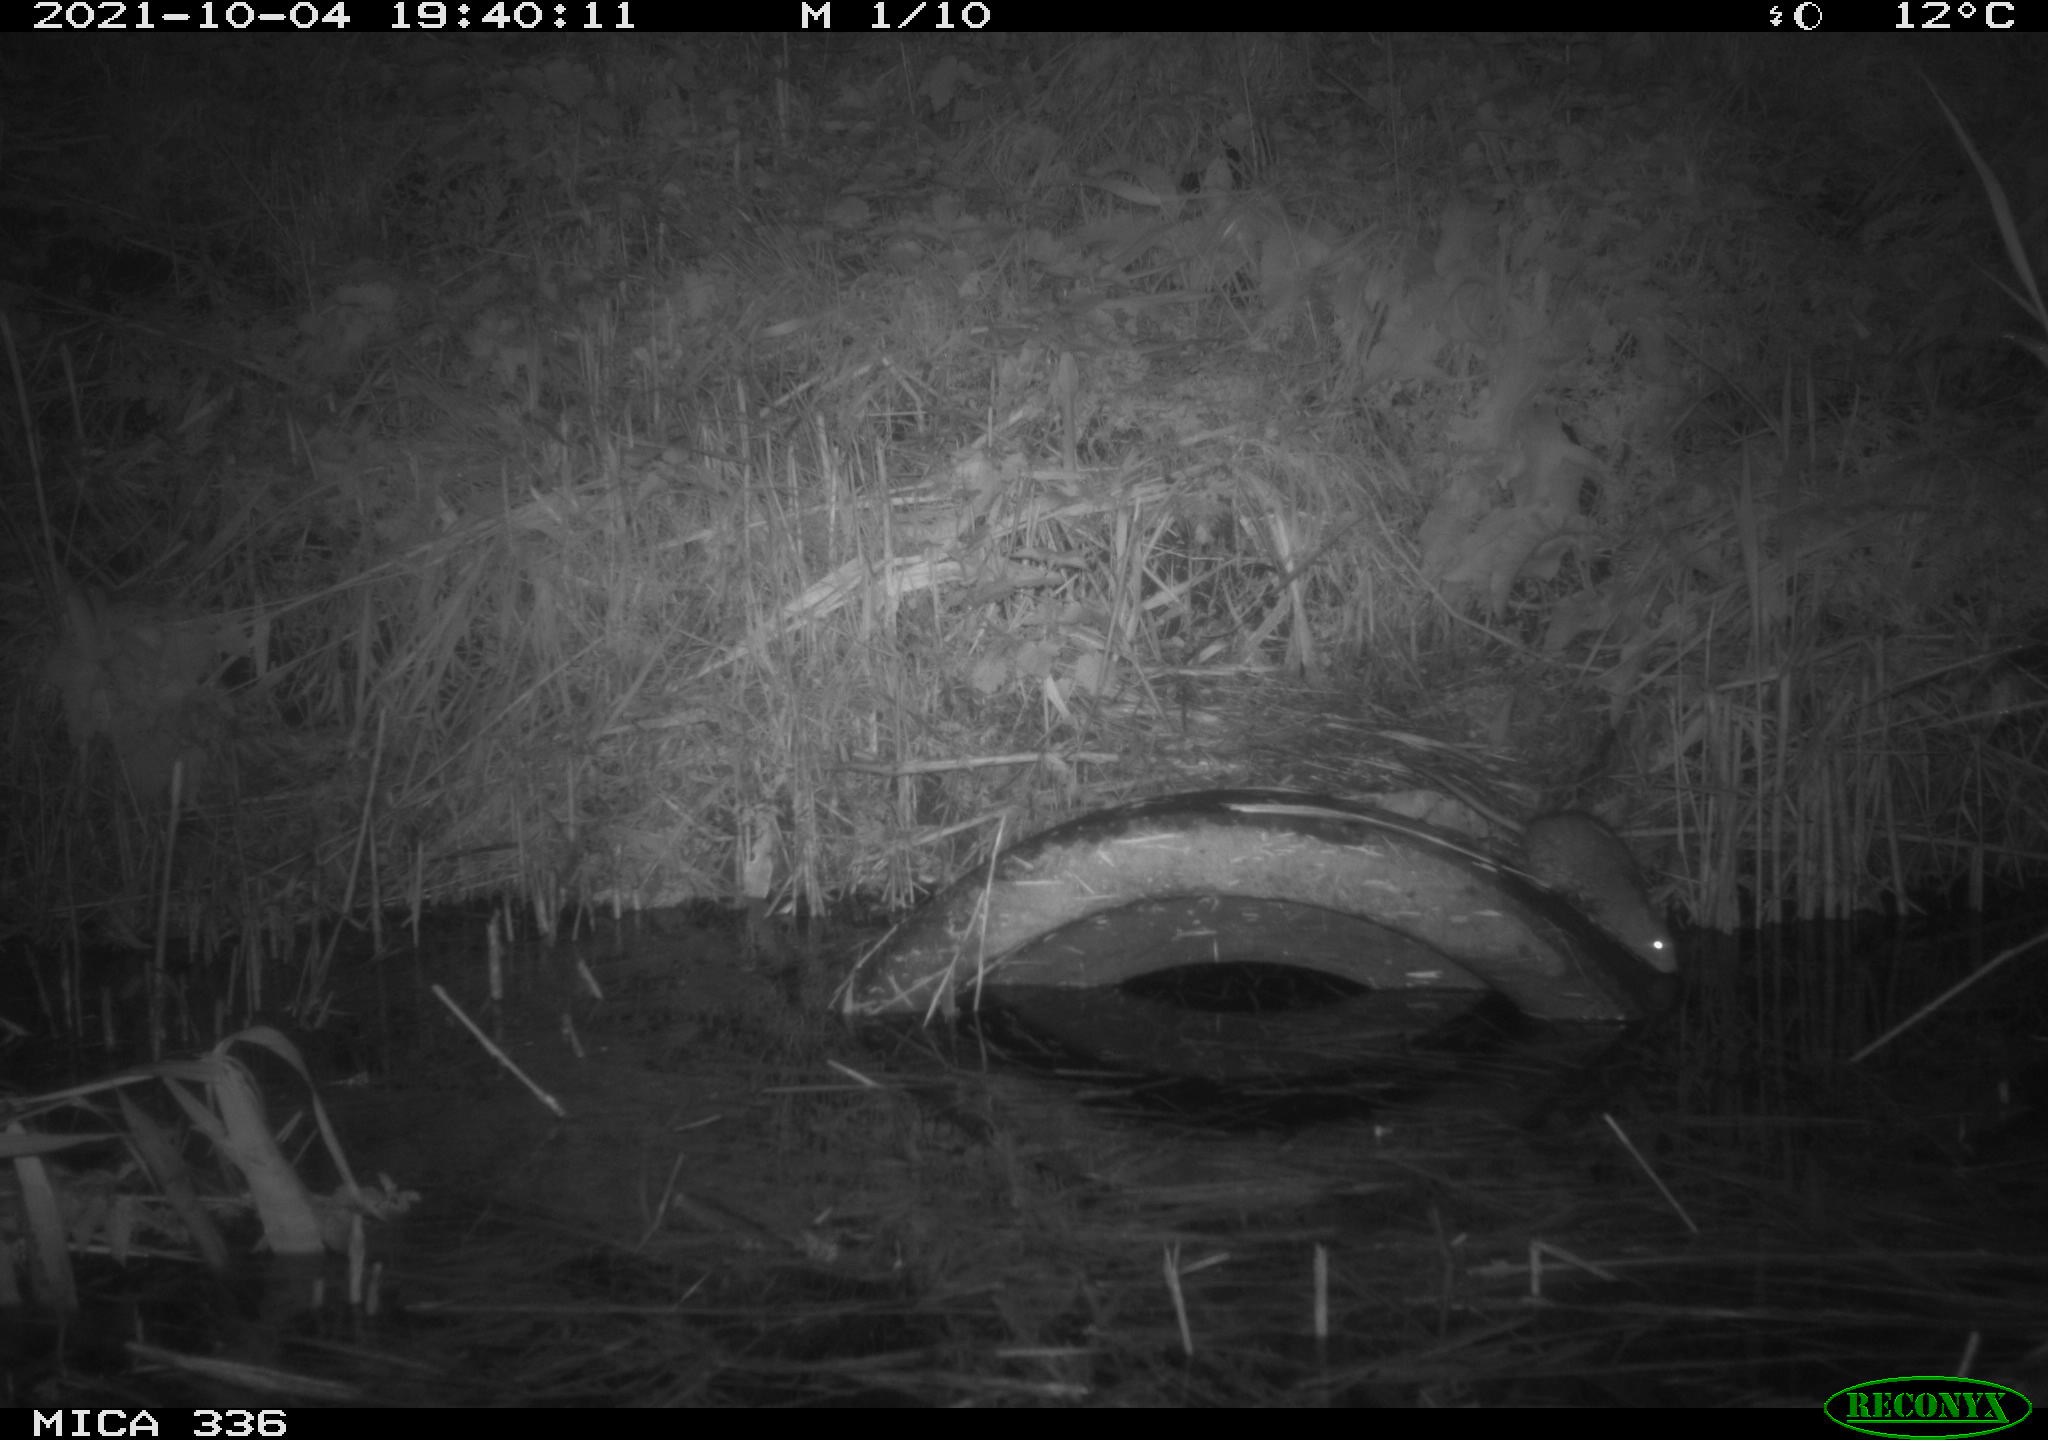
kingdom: Animalia
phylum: Chordata
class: Mammalia
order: Rodentia
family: Muridae
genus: Rattus
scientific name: Rattus norvegicus
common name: Brown rat
